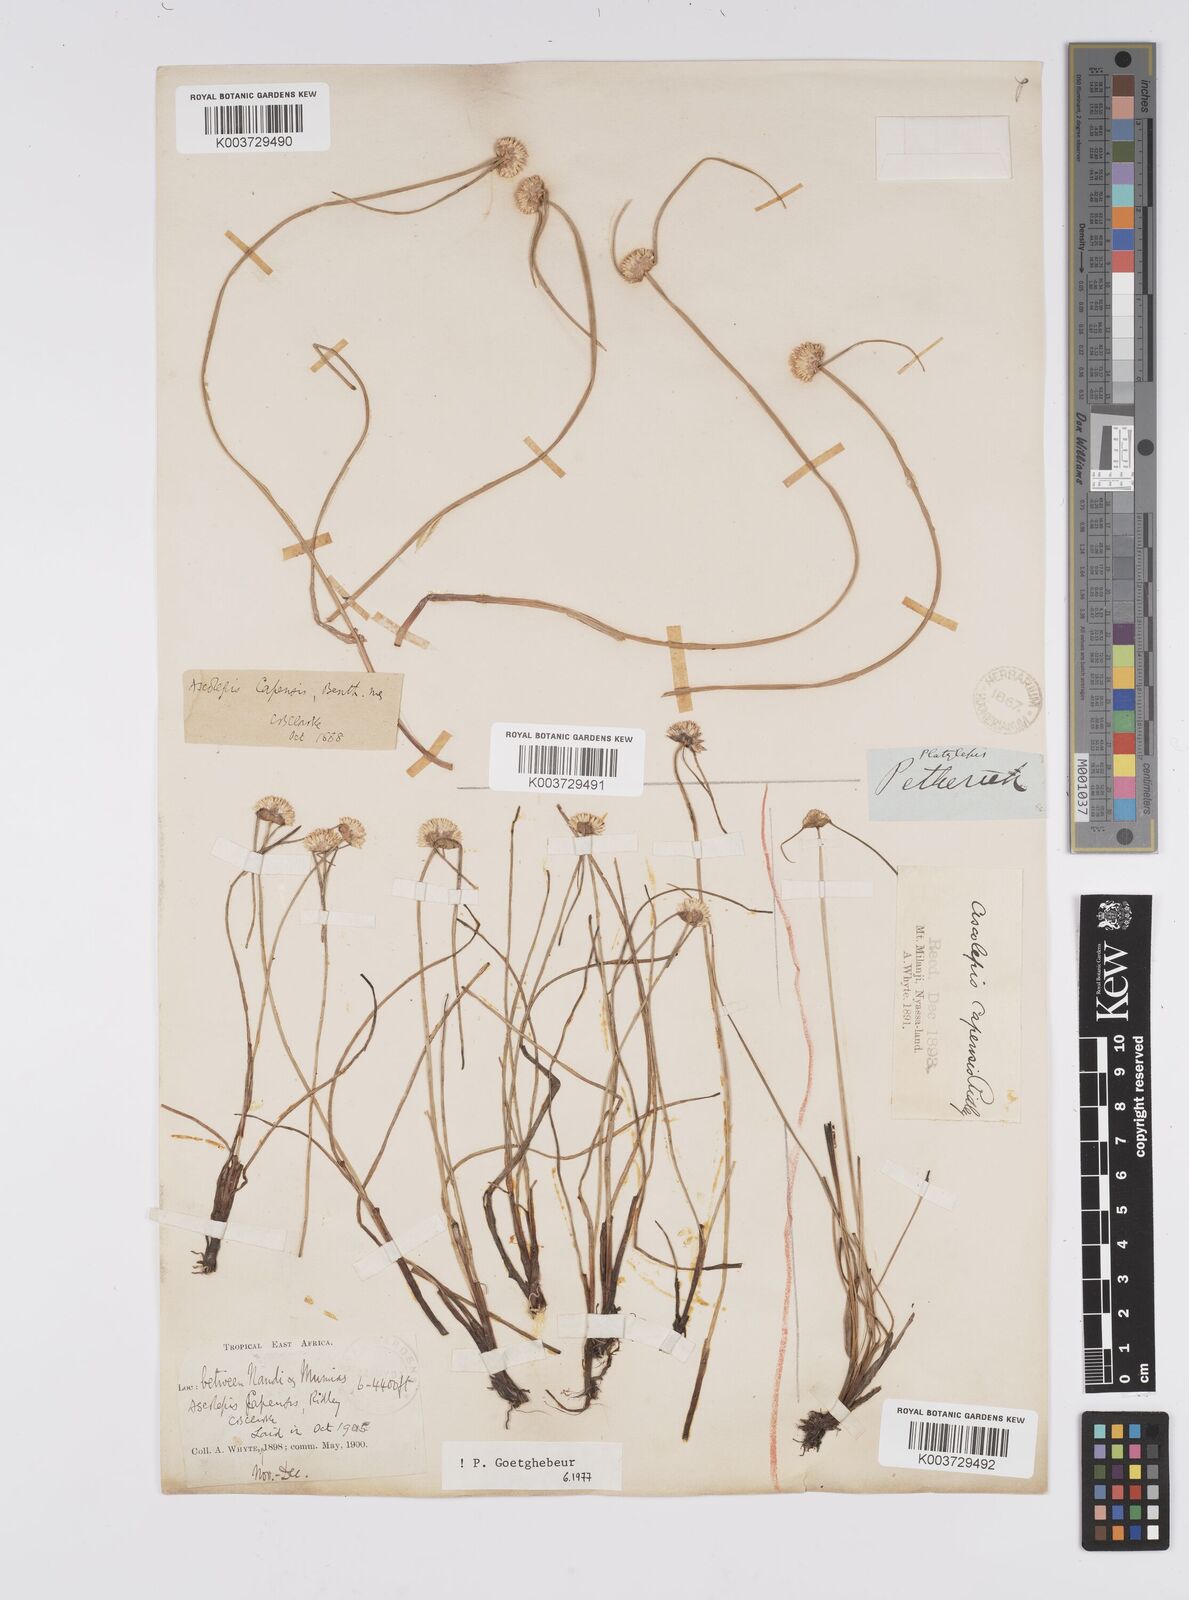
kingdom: Plantae
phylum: Tracheophyta
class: Liliopsida
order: Poales
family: Cyperaceae
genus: Cyperus
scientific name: Cyperus
